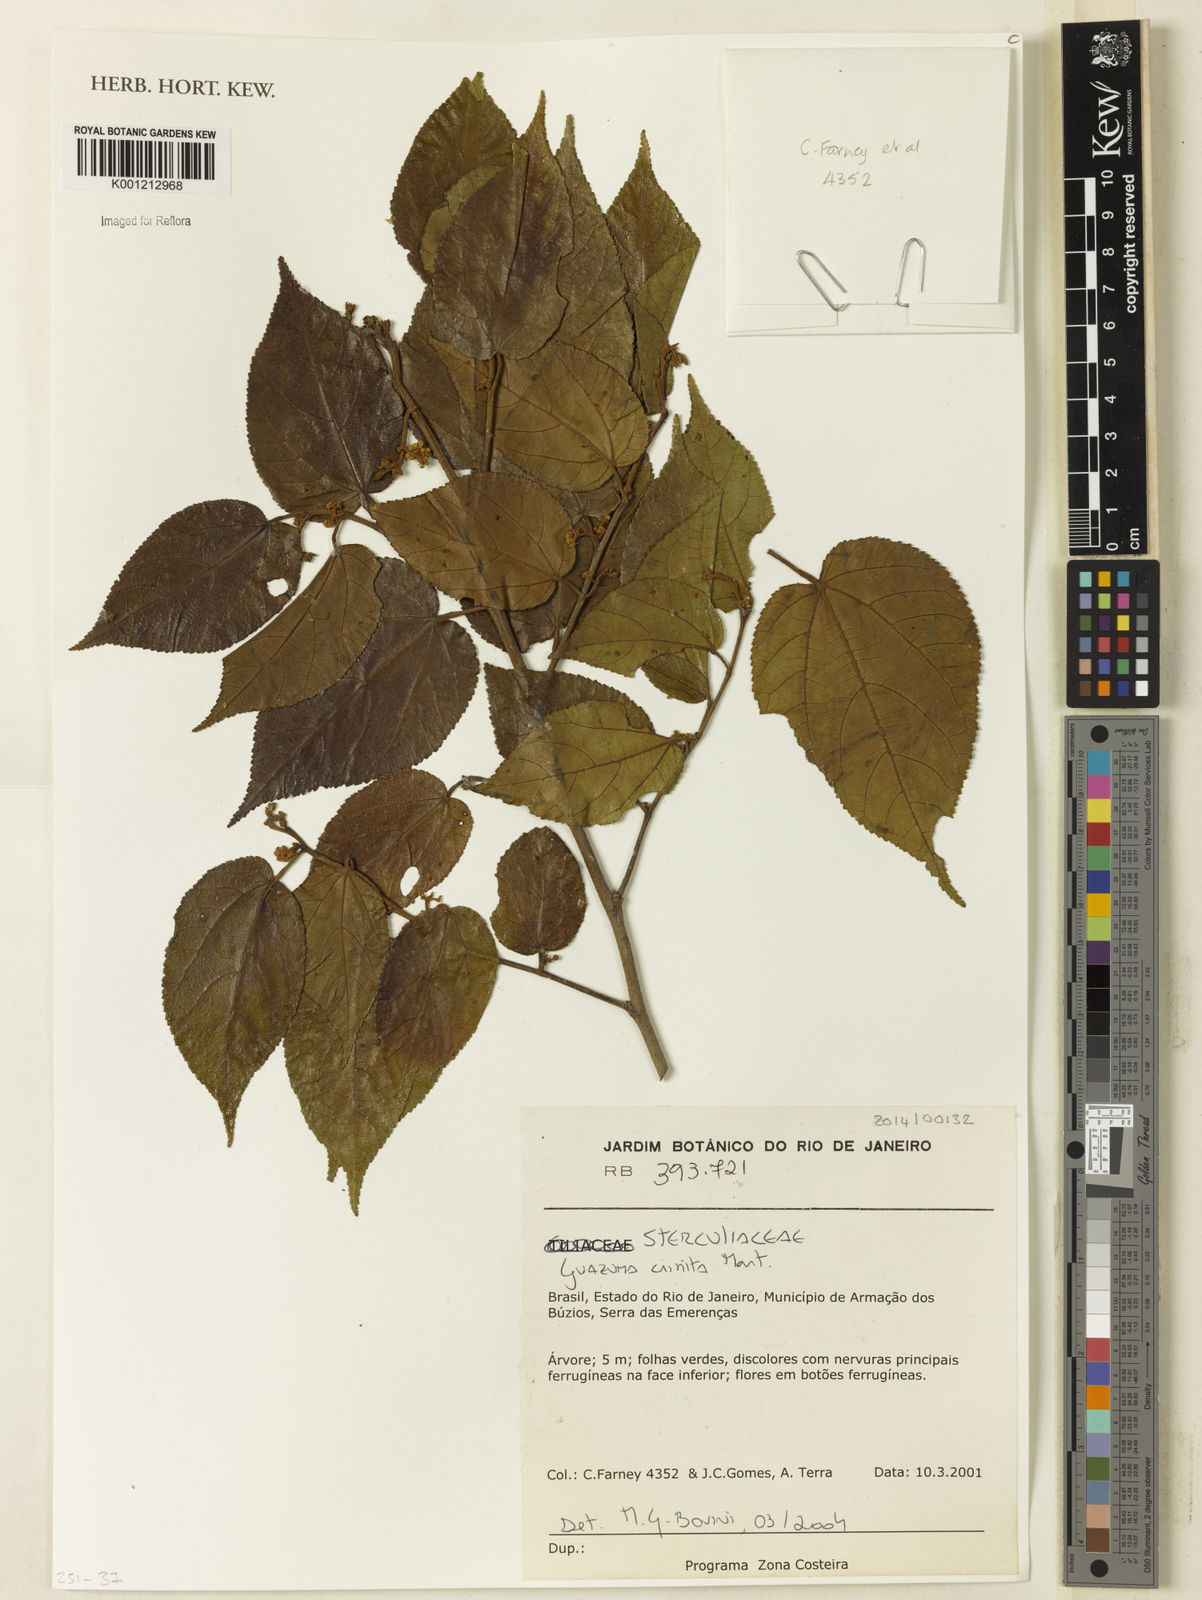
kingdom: Plantae
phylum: Tracheophyta
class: Magnoliopsida
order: Malvales
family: Malvaceae
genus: Guazuma
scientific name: Guazuma crinita
